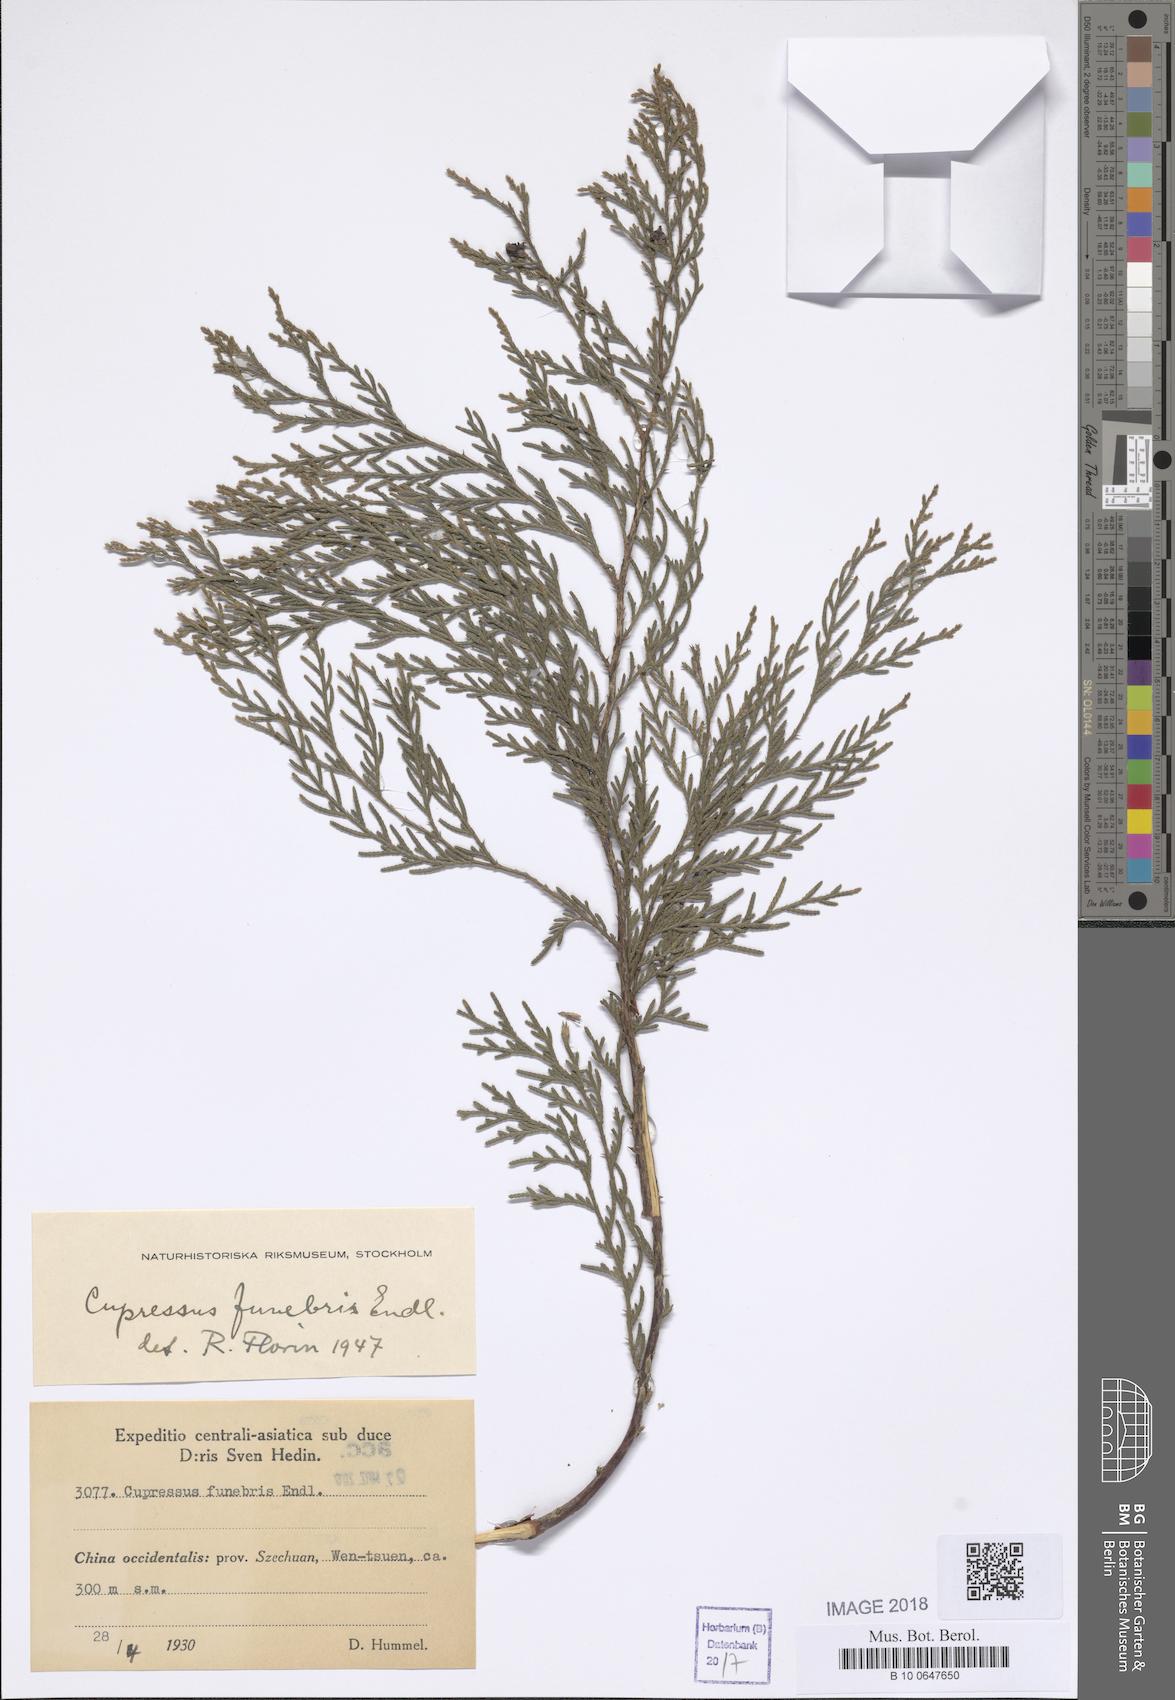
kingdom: Plantae
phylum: Tracheophyta
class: Pinopsida
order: Pinales
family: Cupressaceae
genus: Cupressus
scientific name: Cupressus funebris
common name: Chinese weeping cypress
